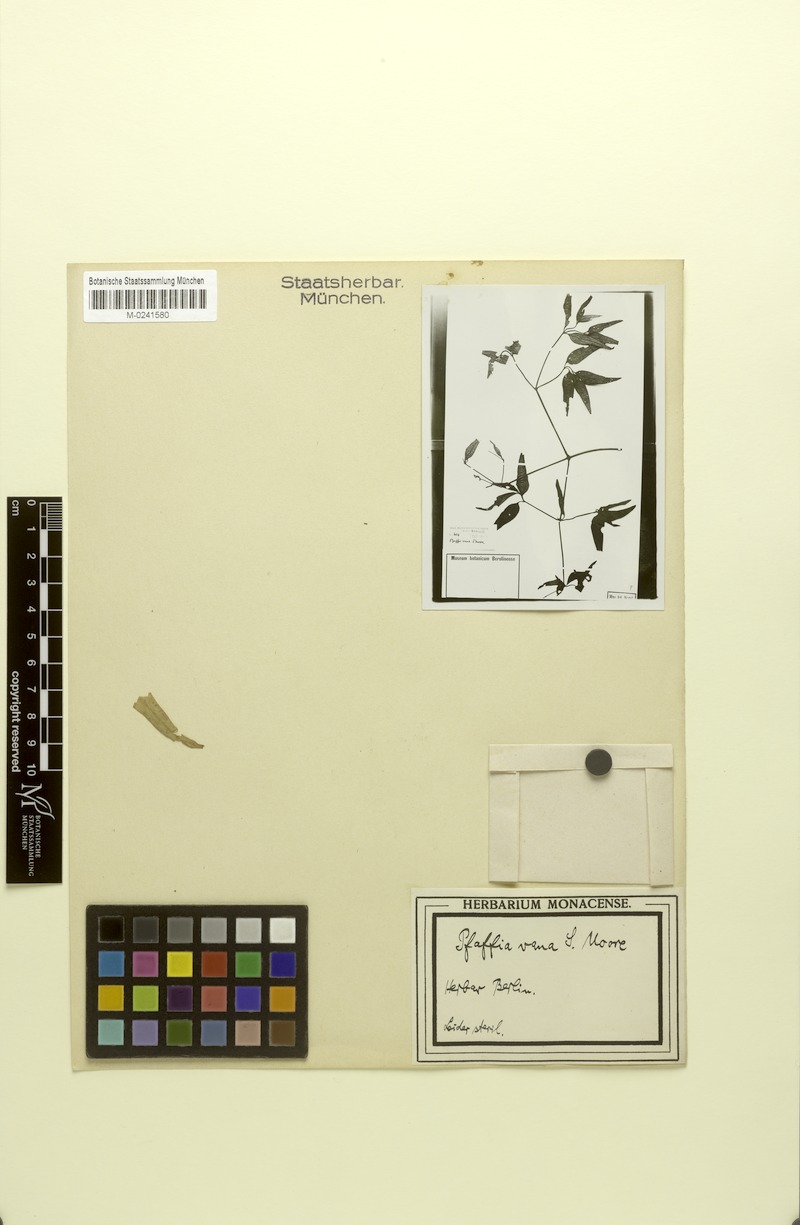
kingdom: Plantae
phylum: Tracheophyta
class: Magnoliopsida
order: Caryophyllales
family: Amaranthaceae
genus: Pfaffia
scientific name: Pfaffia glomerata
